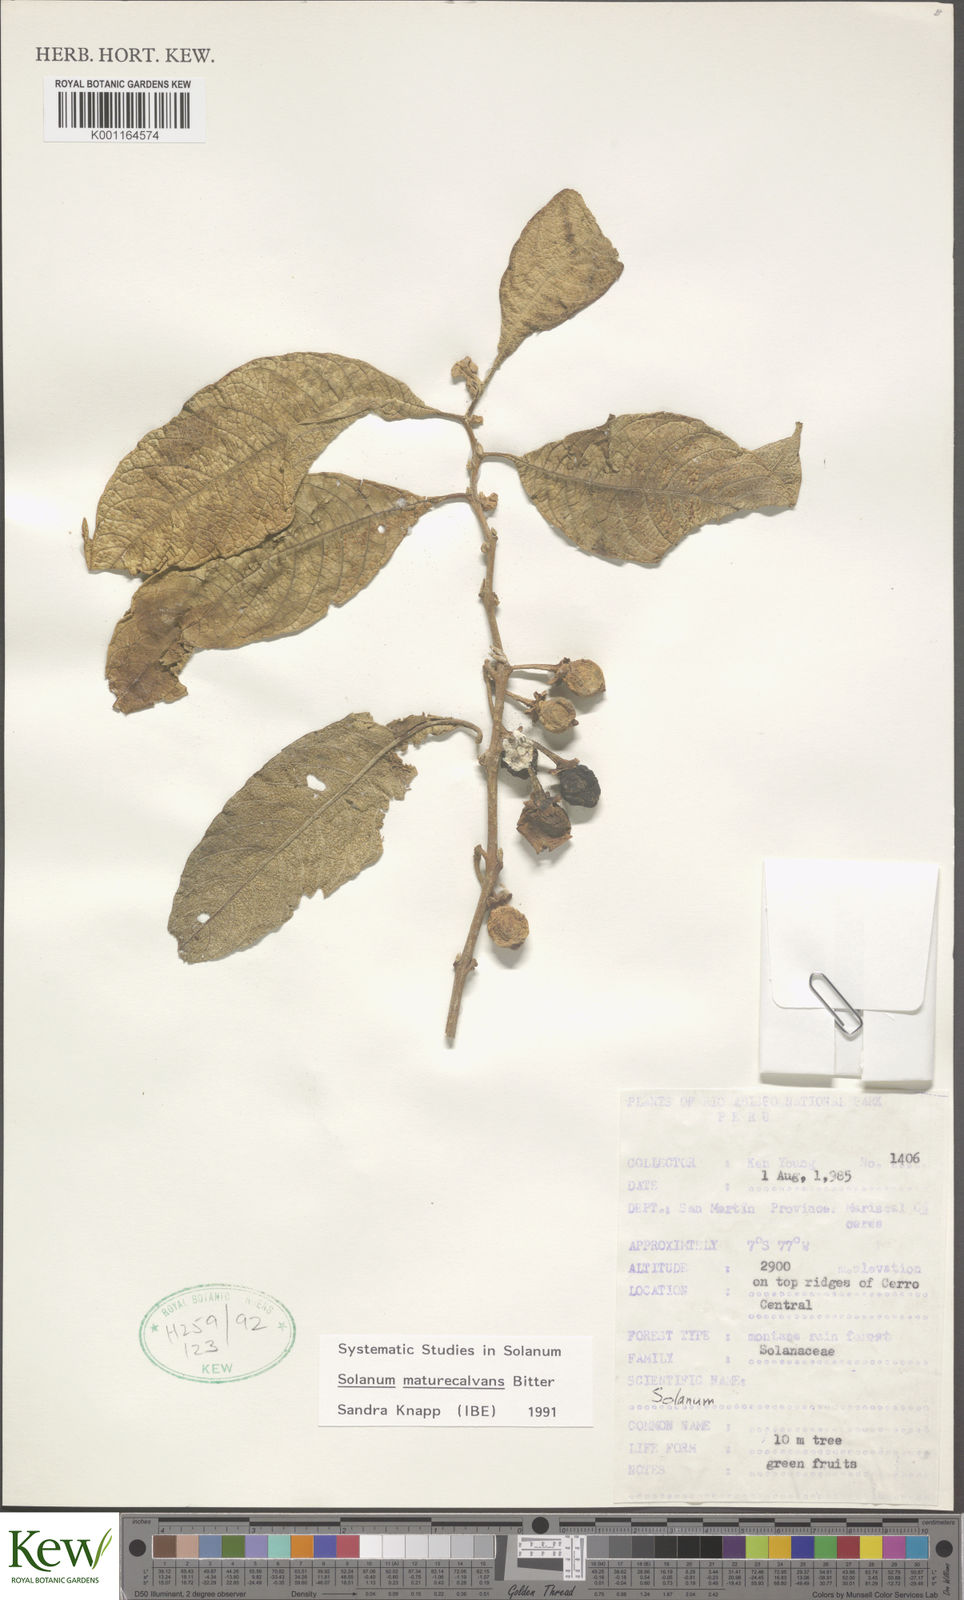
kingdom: Plantae
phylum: Tracheophyta
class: Magnoliopsida
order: Solanales
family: Solanaceae
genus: Solanum
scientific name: Solanum maturecalvans
